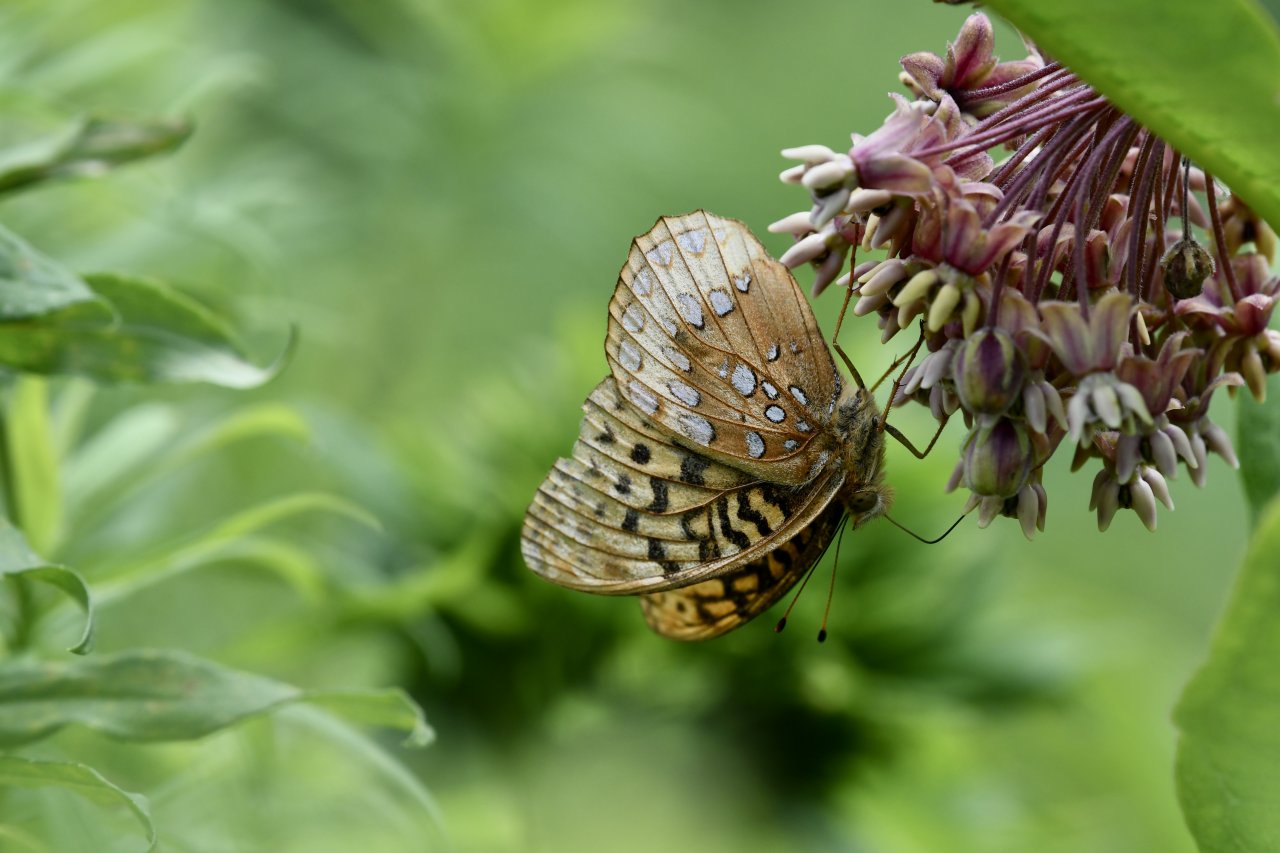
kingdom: Animalia
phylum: Arthropoda
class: Insecta
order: Lepidoptera
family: Nymphalidae
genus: Speyeria
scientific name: Speyeria cybele
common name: Great Spangled Fritillary
